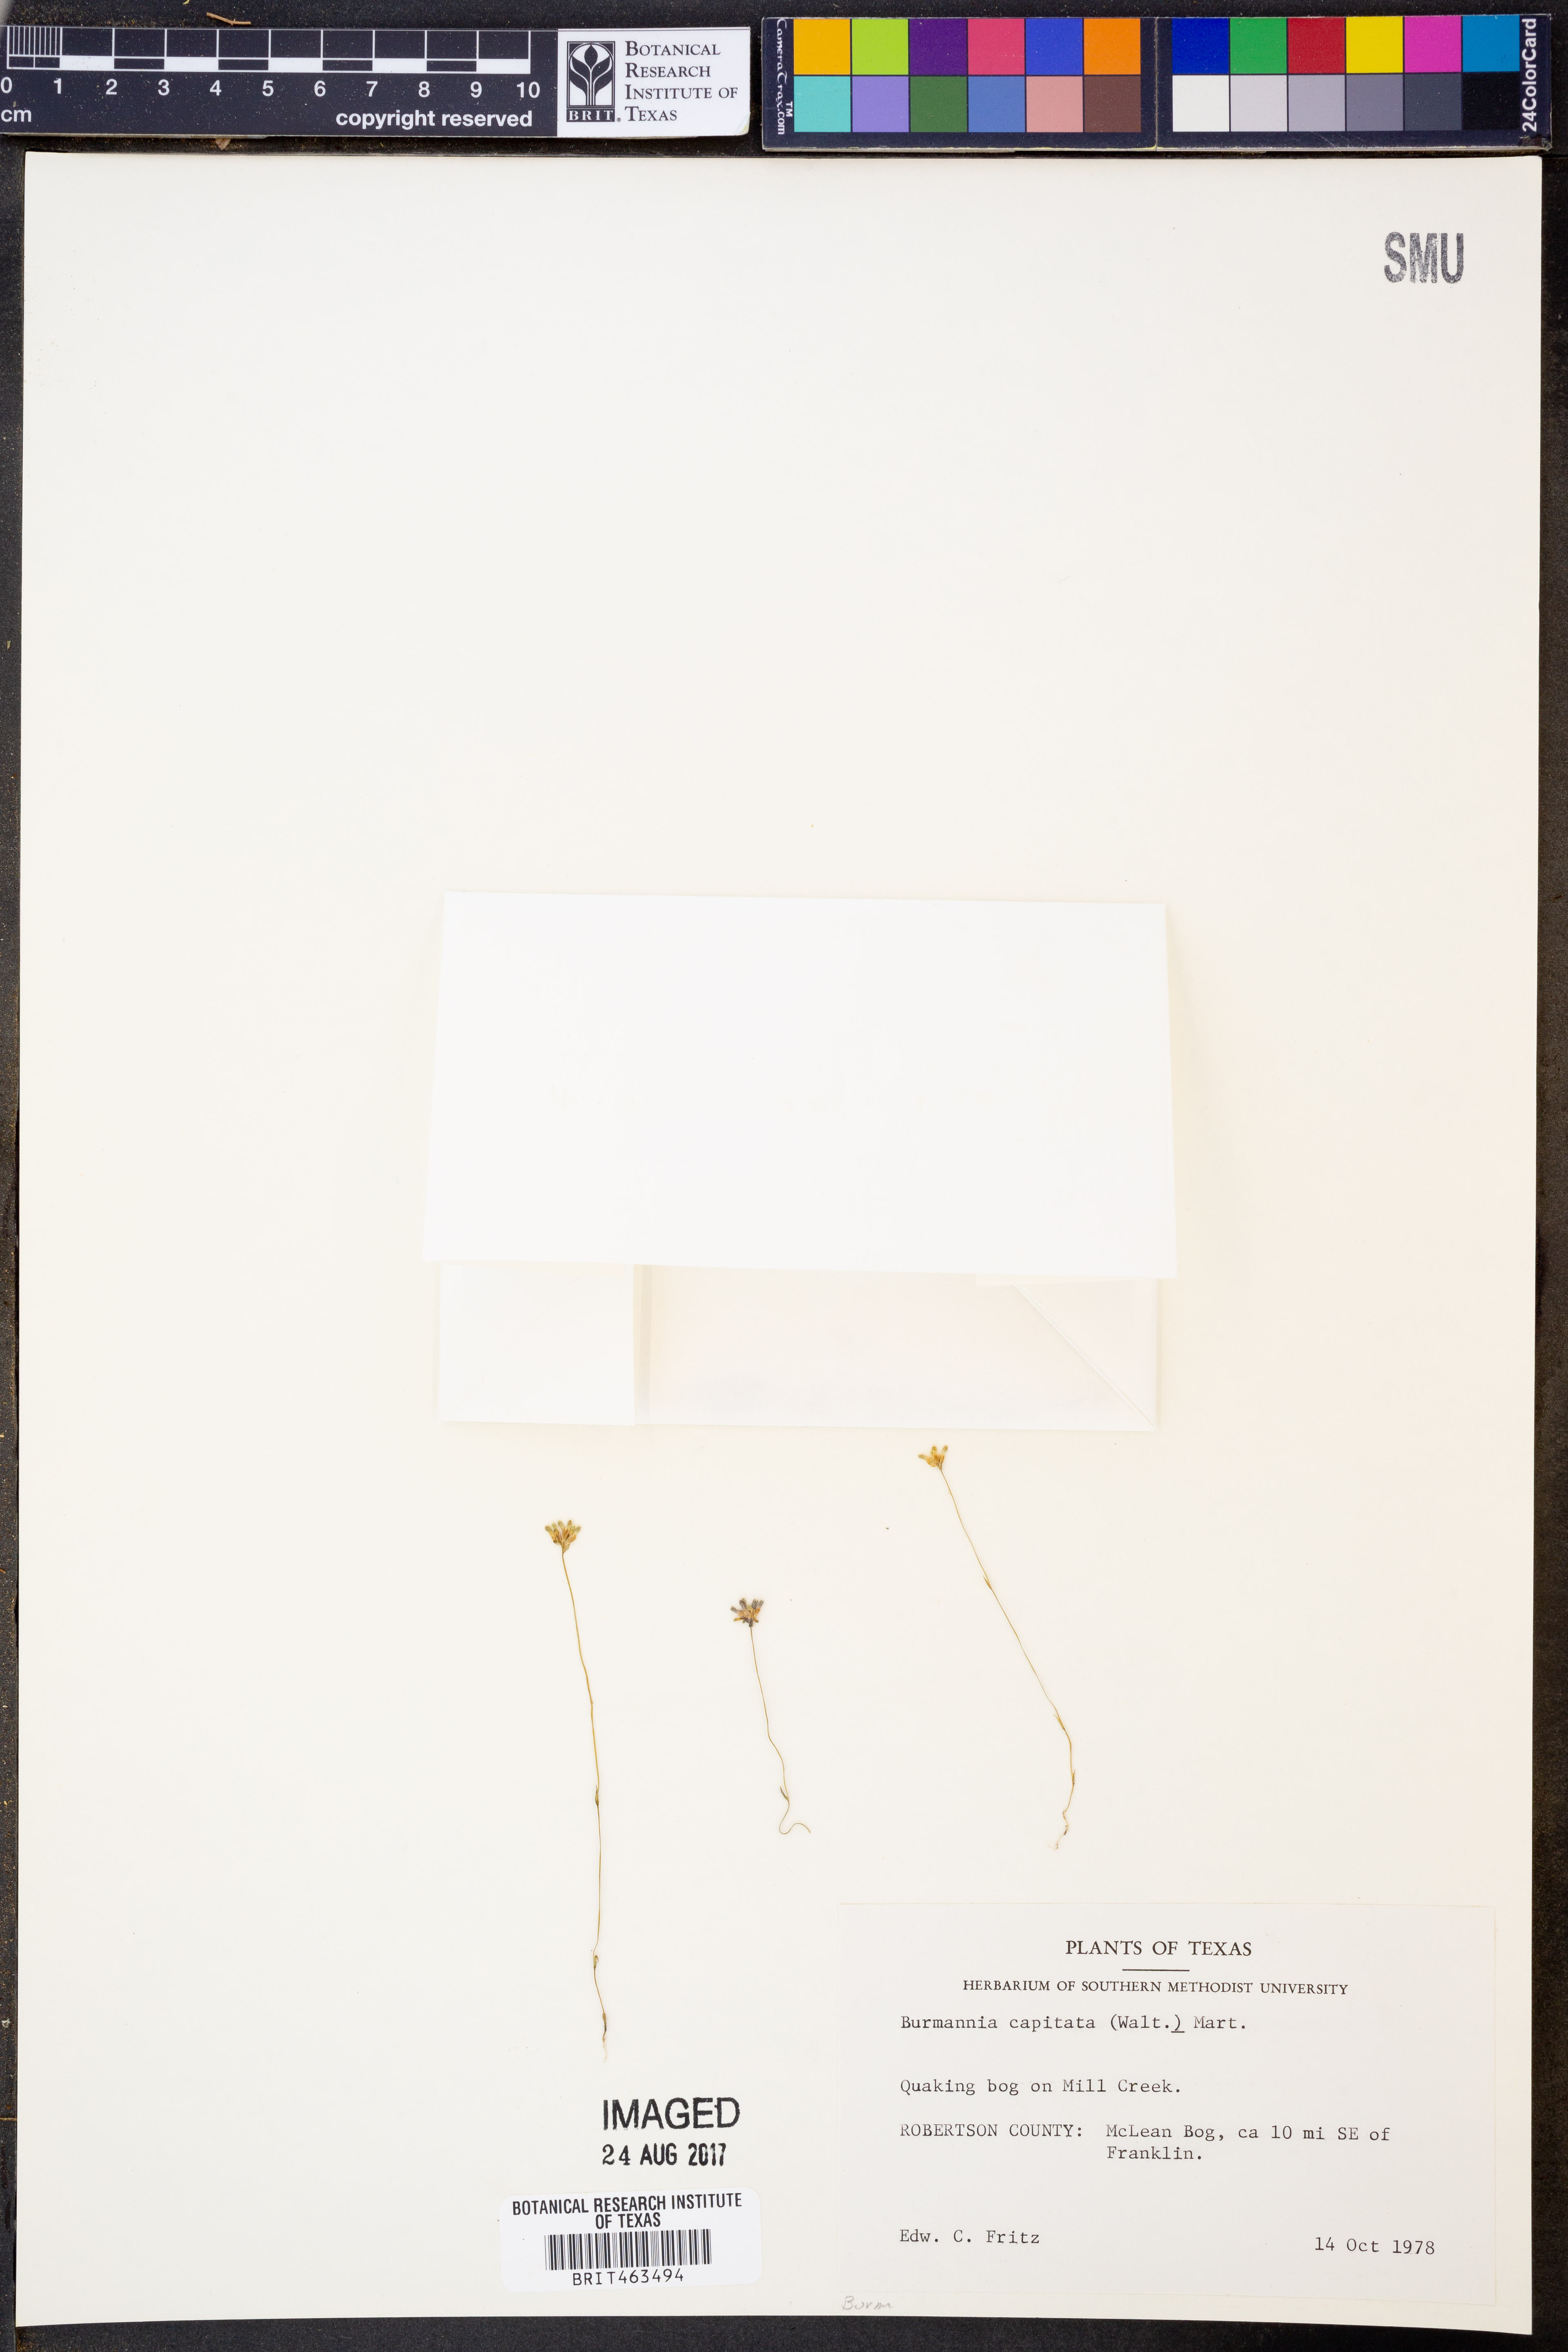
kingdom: Plantae
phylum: Tracheophyta
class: Liliopsida
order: Dioscoreales
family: Burmanniaceae
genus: Burmannia
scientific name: Burmannia capitata
